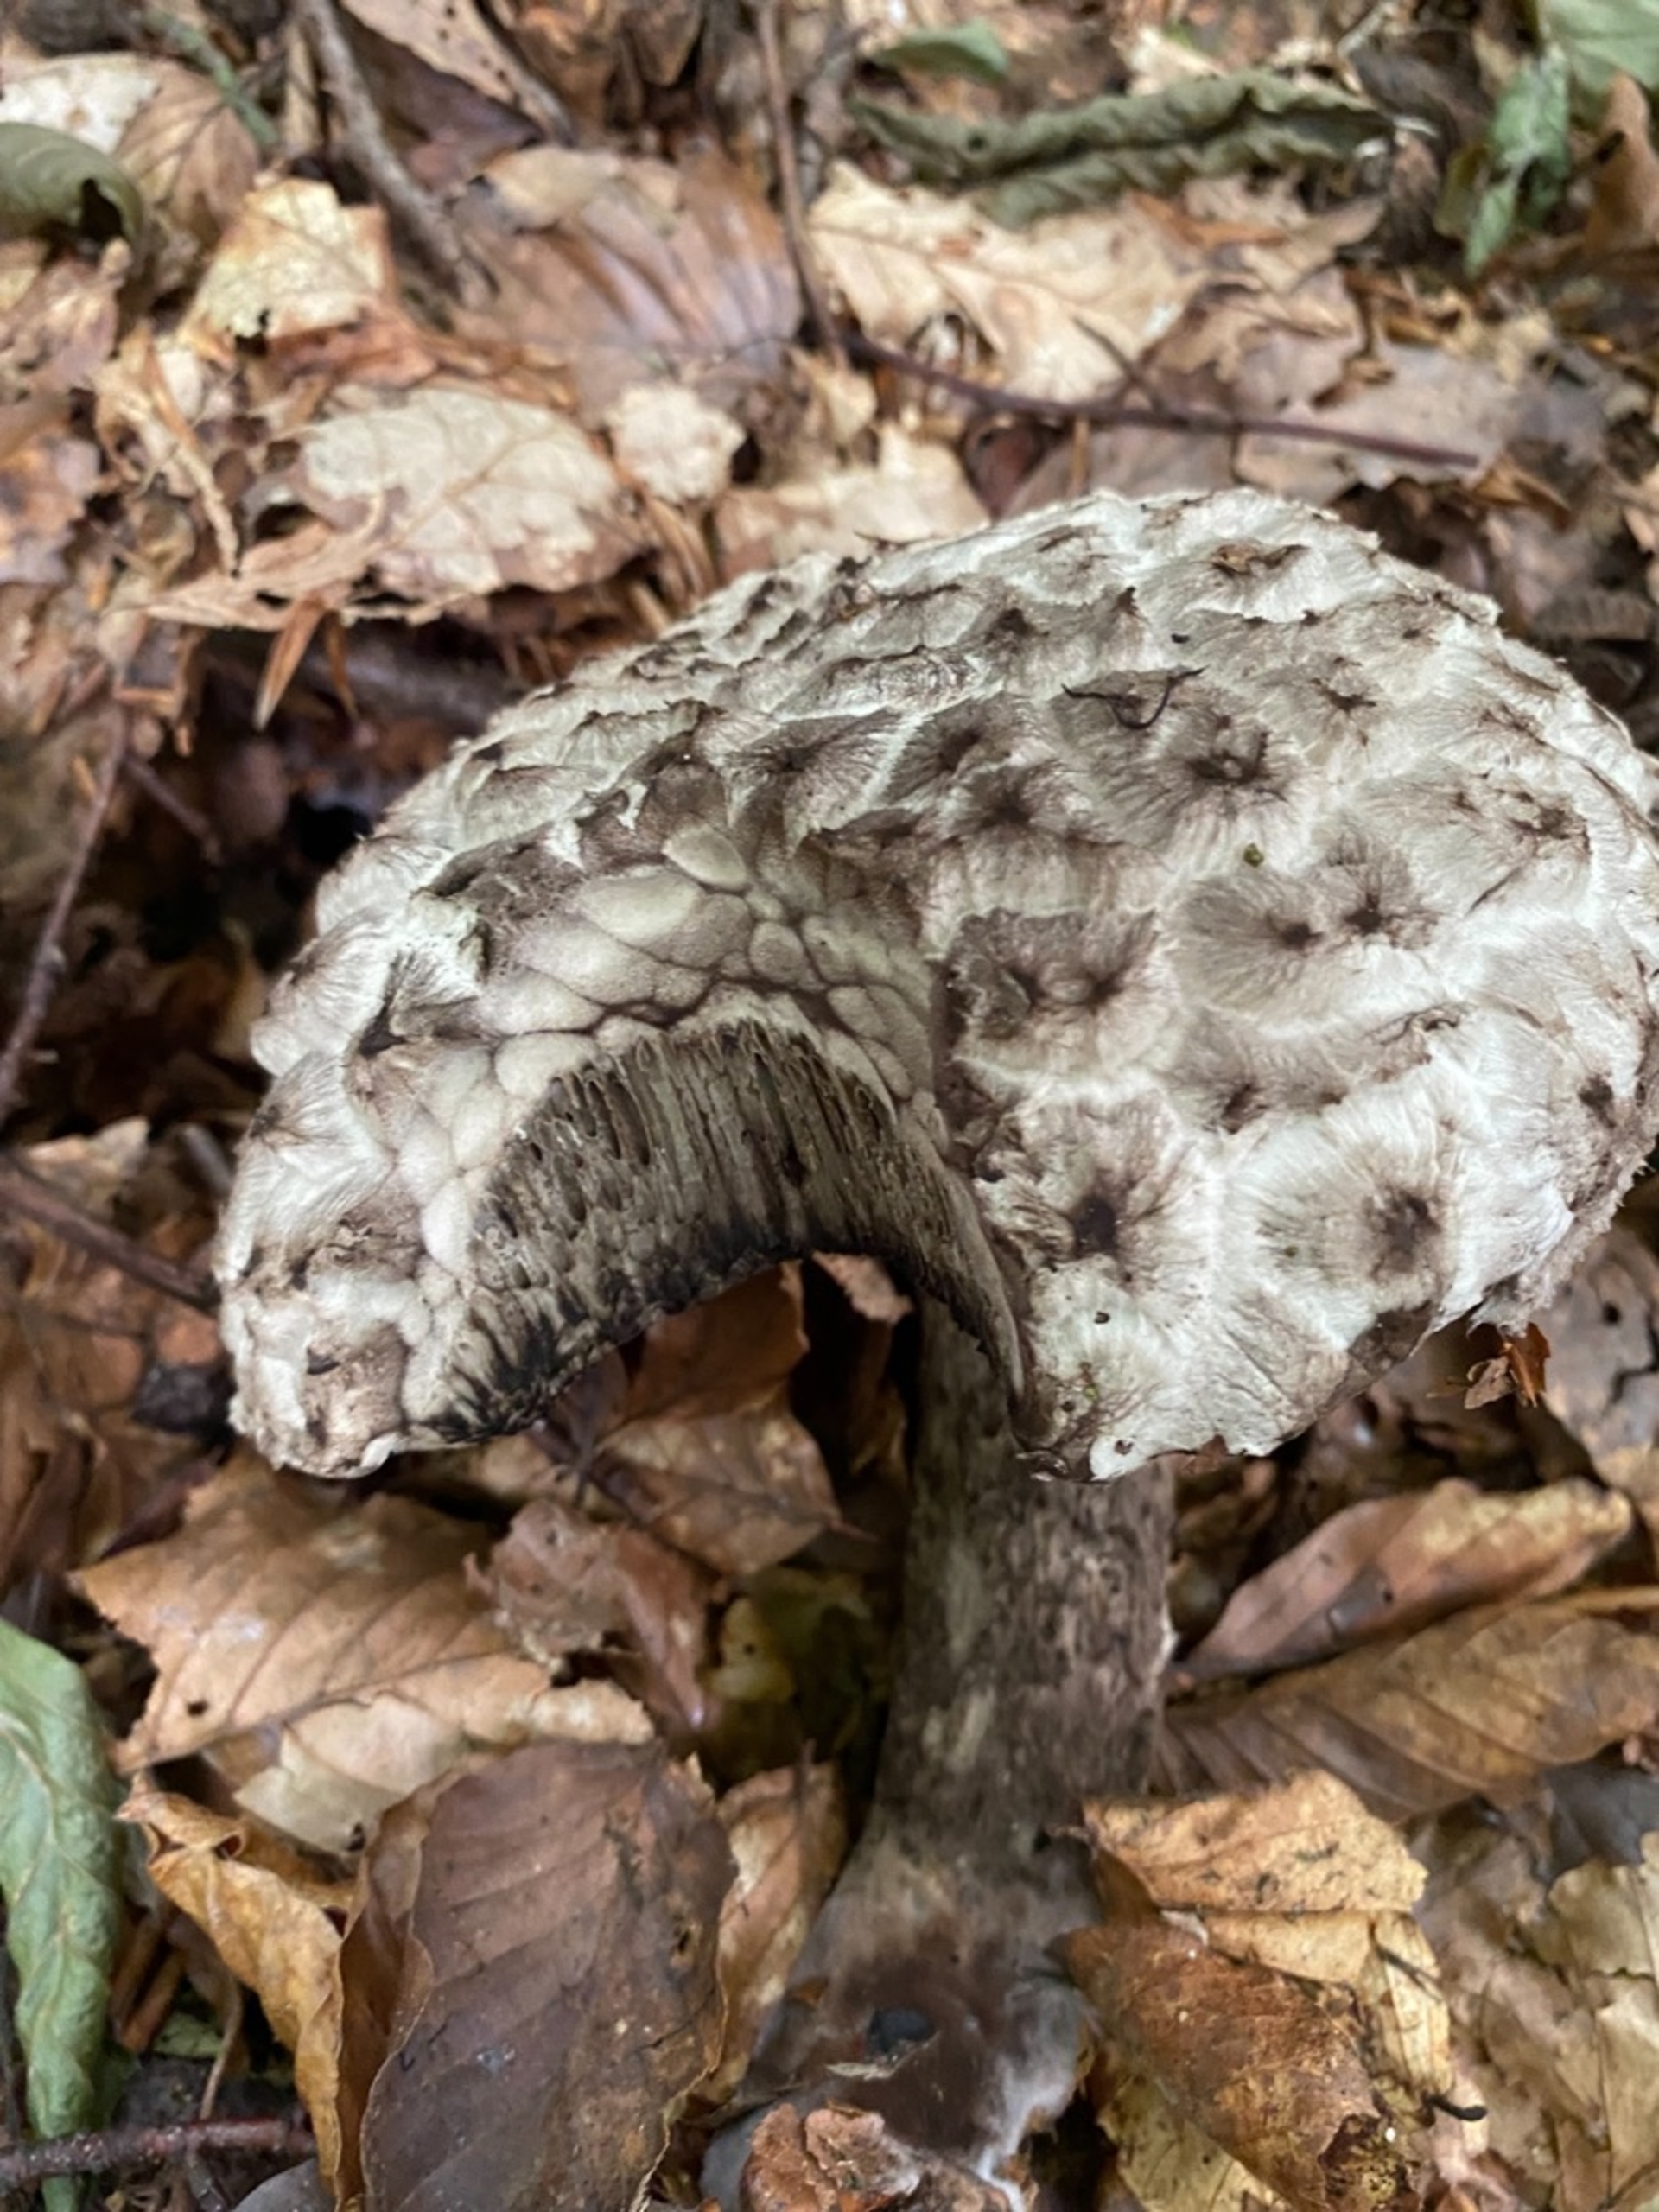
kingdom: Fungi
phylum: Basidiomycota
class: Agaricomycetes
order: Boletales
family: Boletaceae
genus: Strobilomyces
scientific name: Strobilomyces strobilaceus
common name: Koglerørhat
